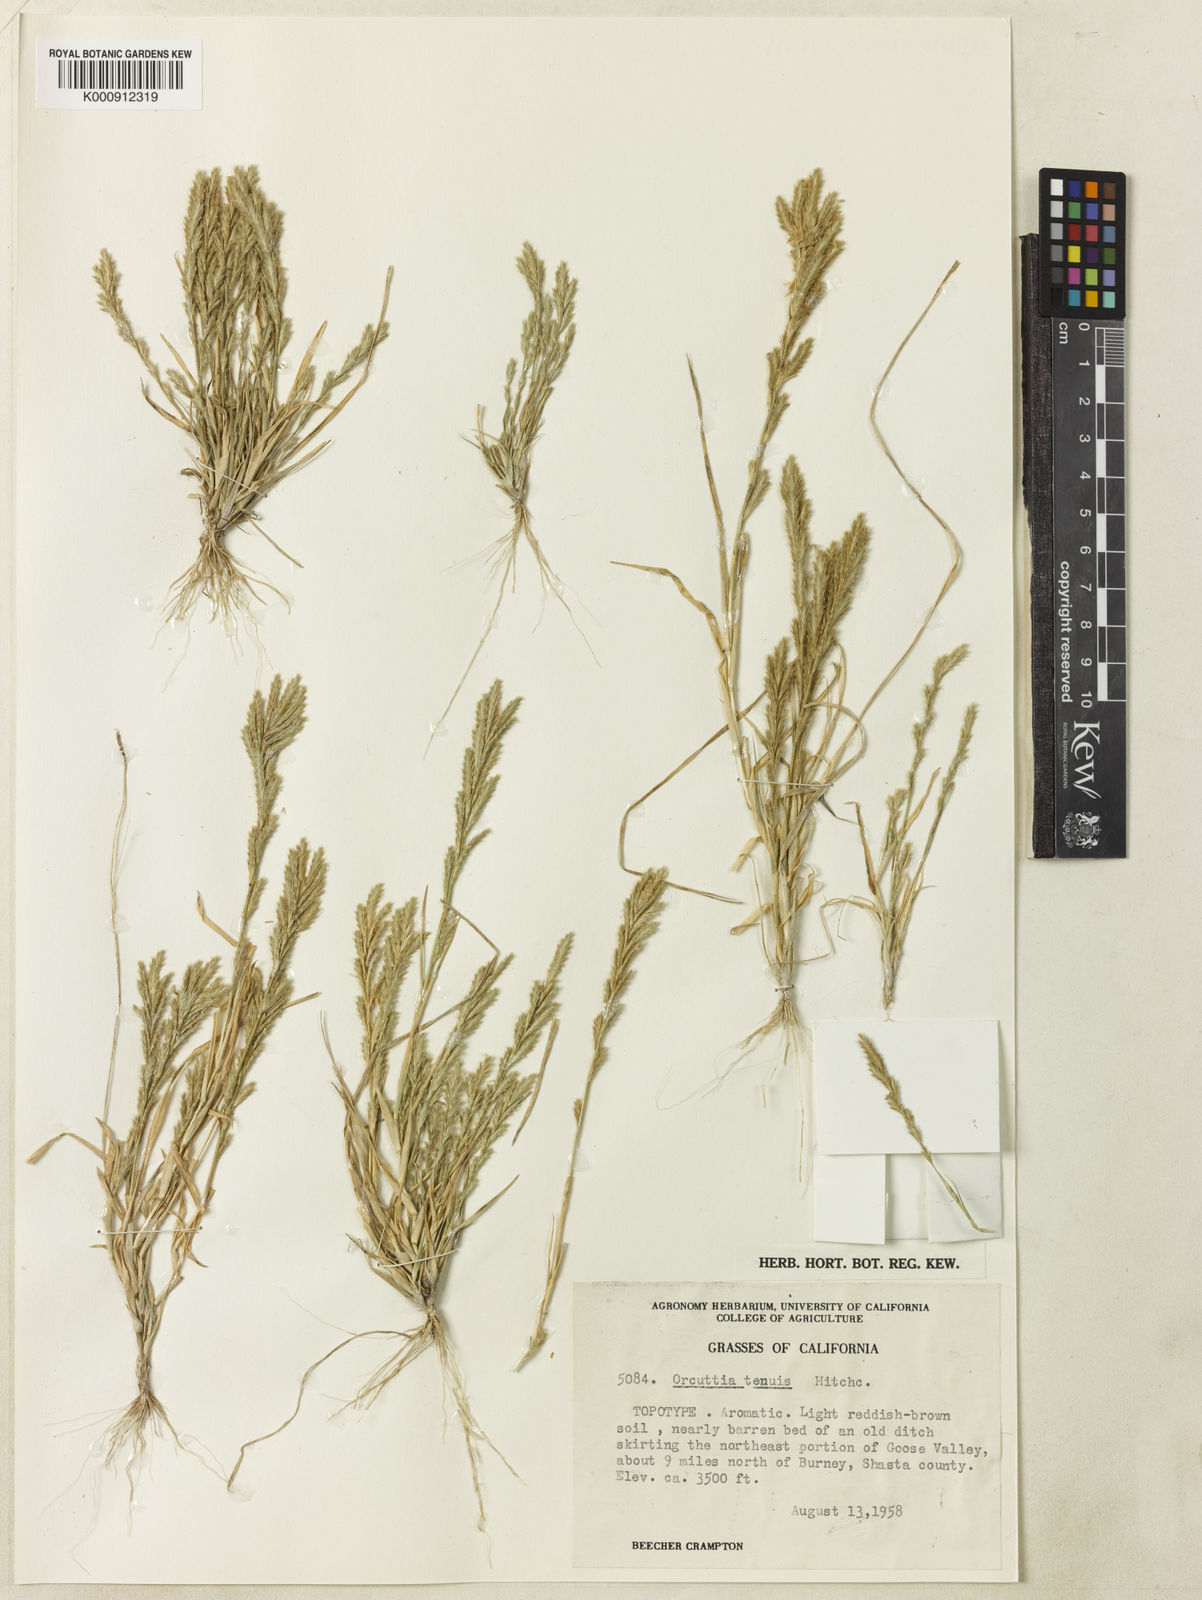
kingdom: Plantae
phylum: Tracheophyta
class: Liliopsida
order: Poales
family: Poaceae
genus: Orcuttia
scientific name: Orcuttia tenuis
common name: Slender orcutt grass
